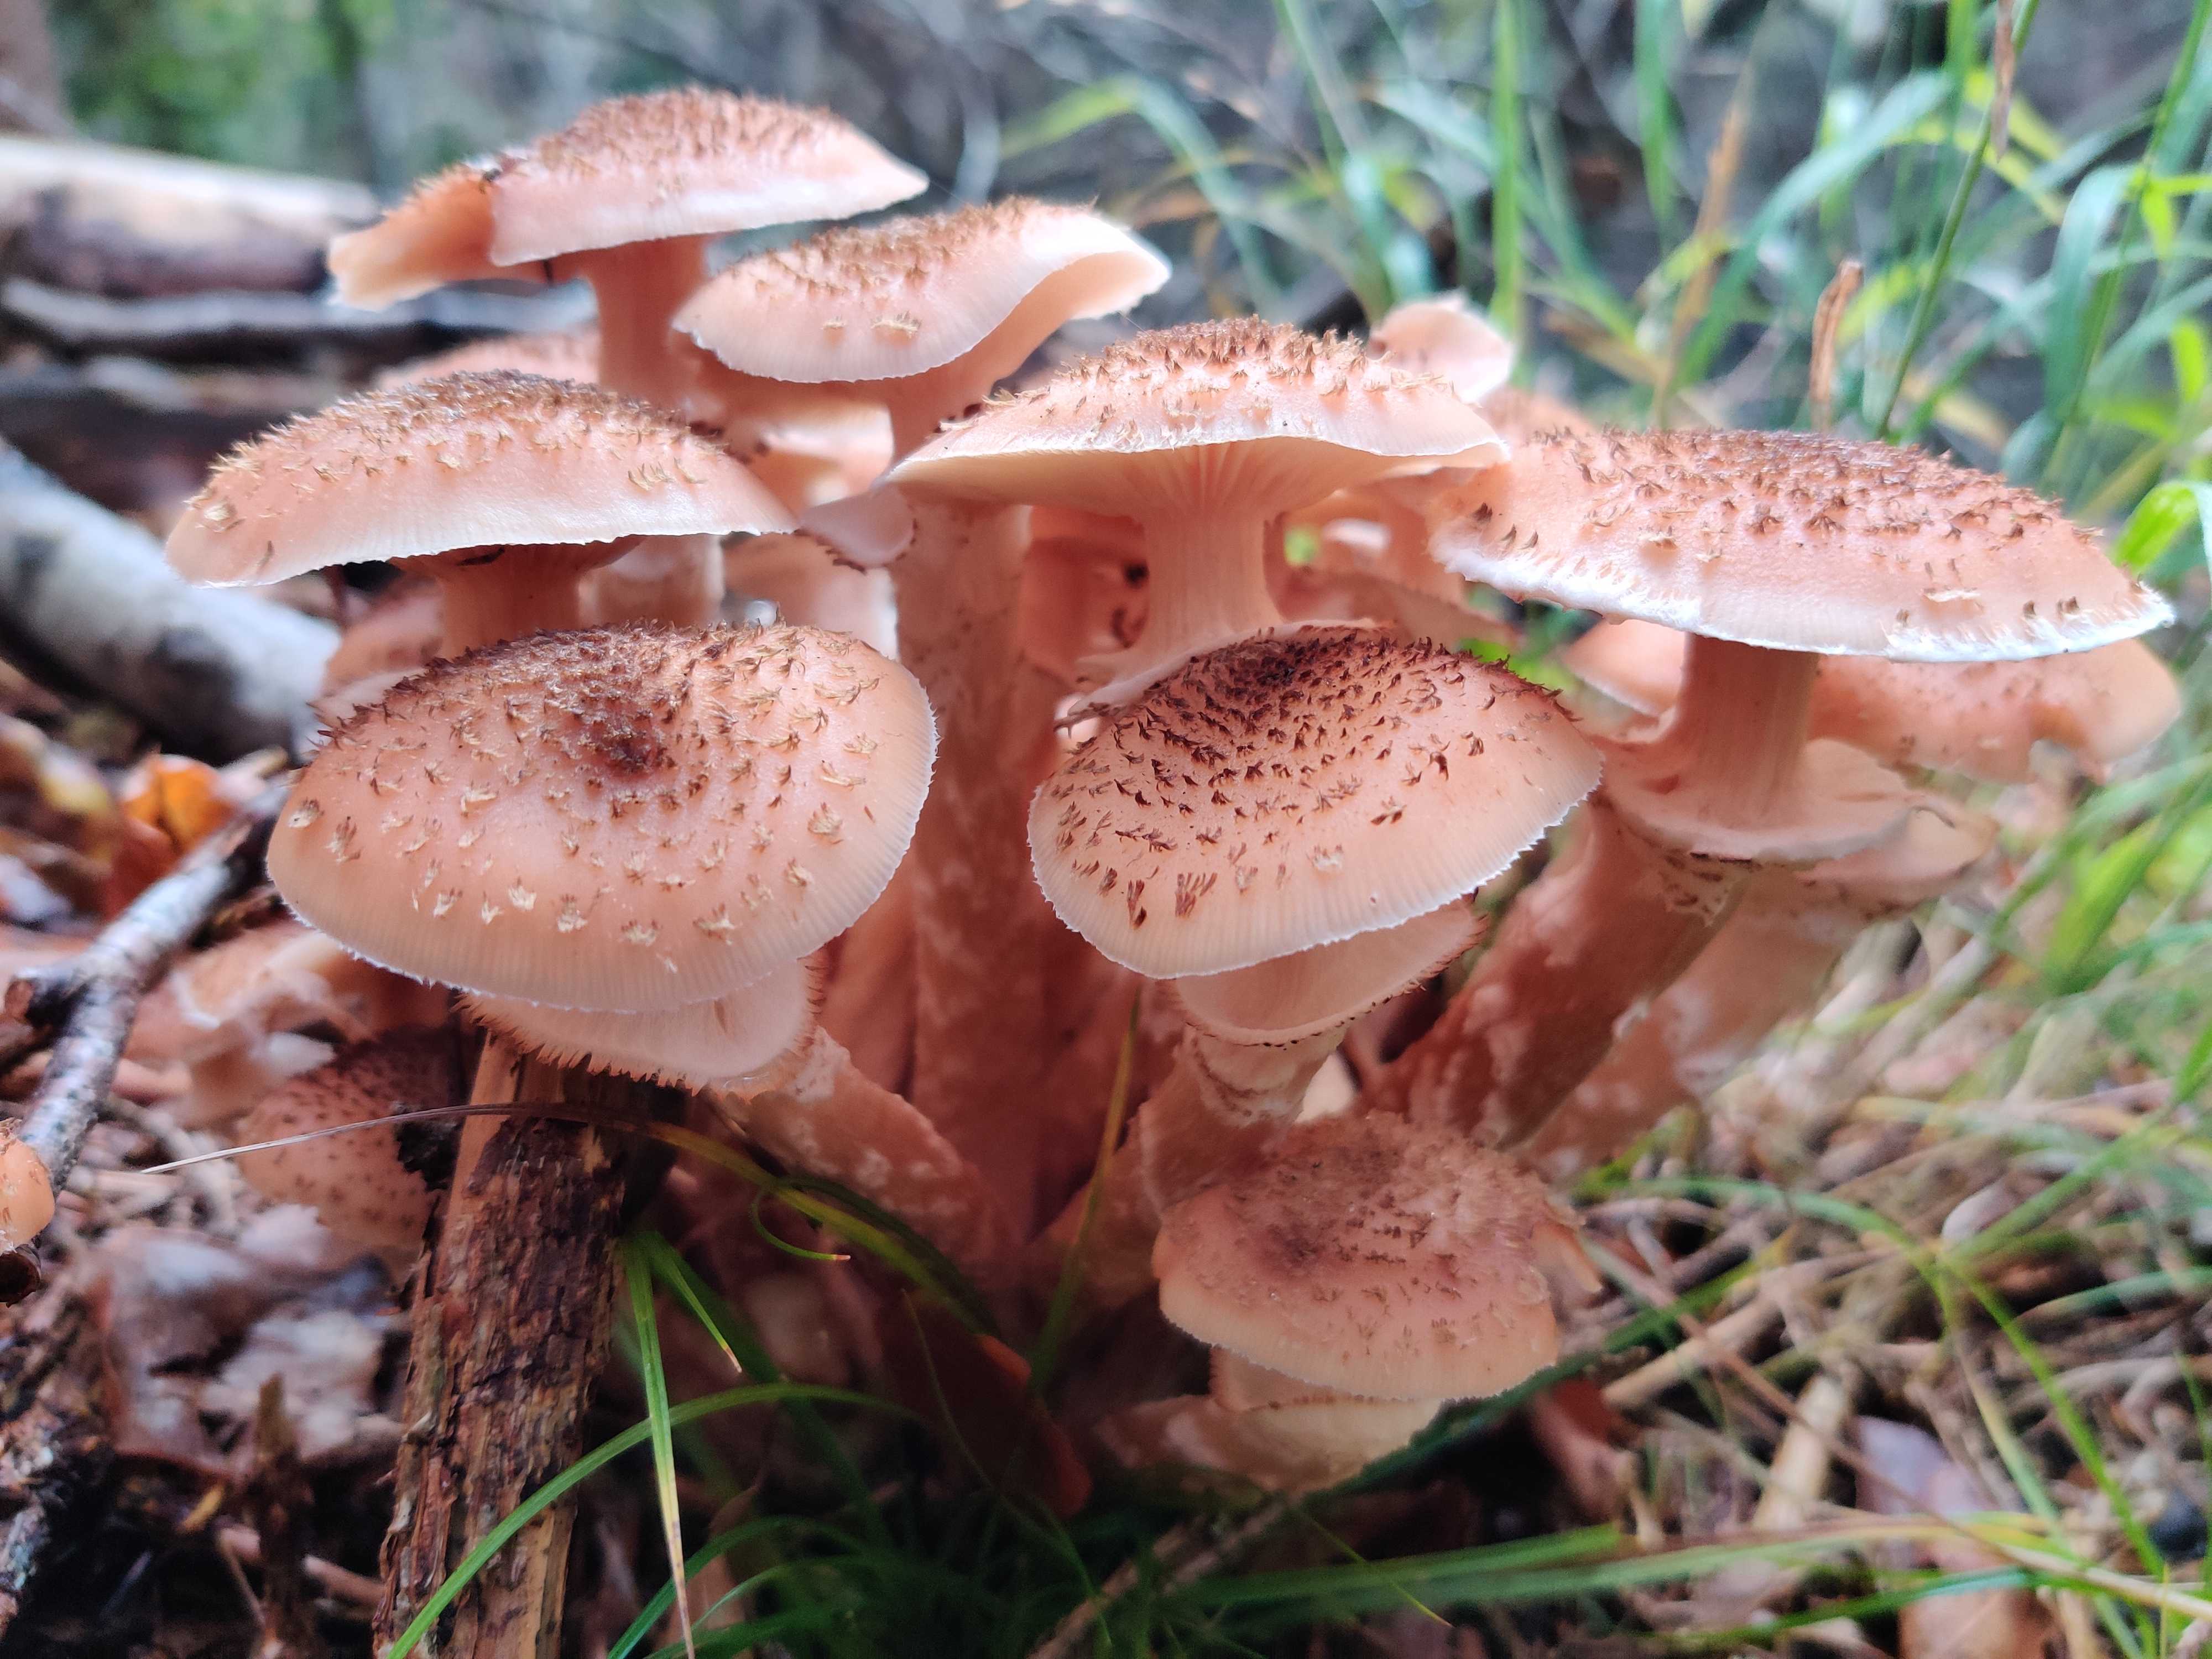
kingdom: Fungi
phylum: Basidiomycota
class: Agaricomycetes
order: Agaricales
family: Physalacriaceae
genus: Armillaria
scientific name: Armillaria ostoyae
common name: mørk honningsvamp
